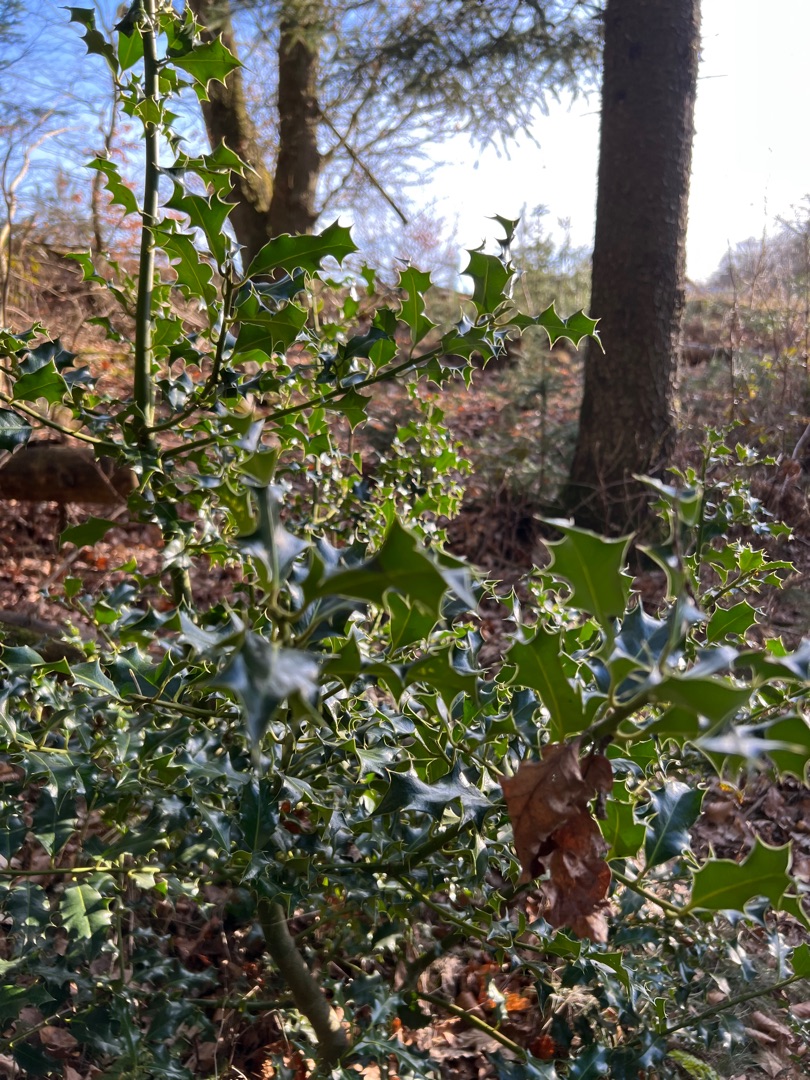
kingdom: Plantae
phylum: Tracheophyta
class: Magnoliopsida
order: Aquifoliales
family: Aquifoliaceae
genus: Ilex
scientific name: Ilex aquifolium
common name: Kristtorn
